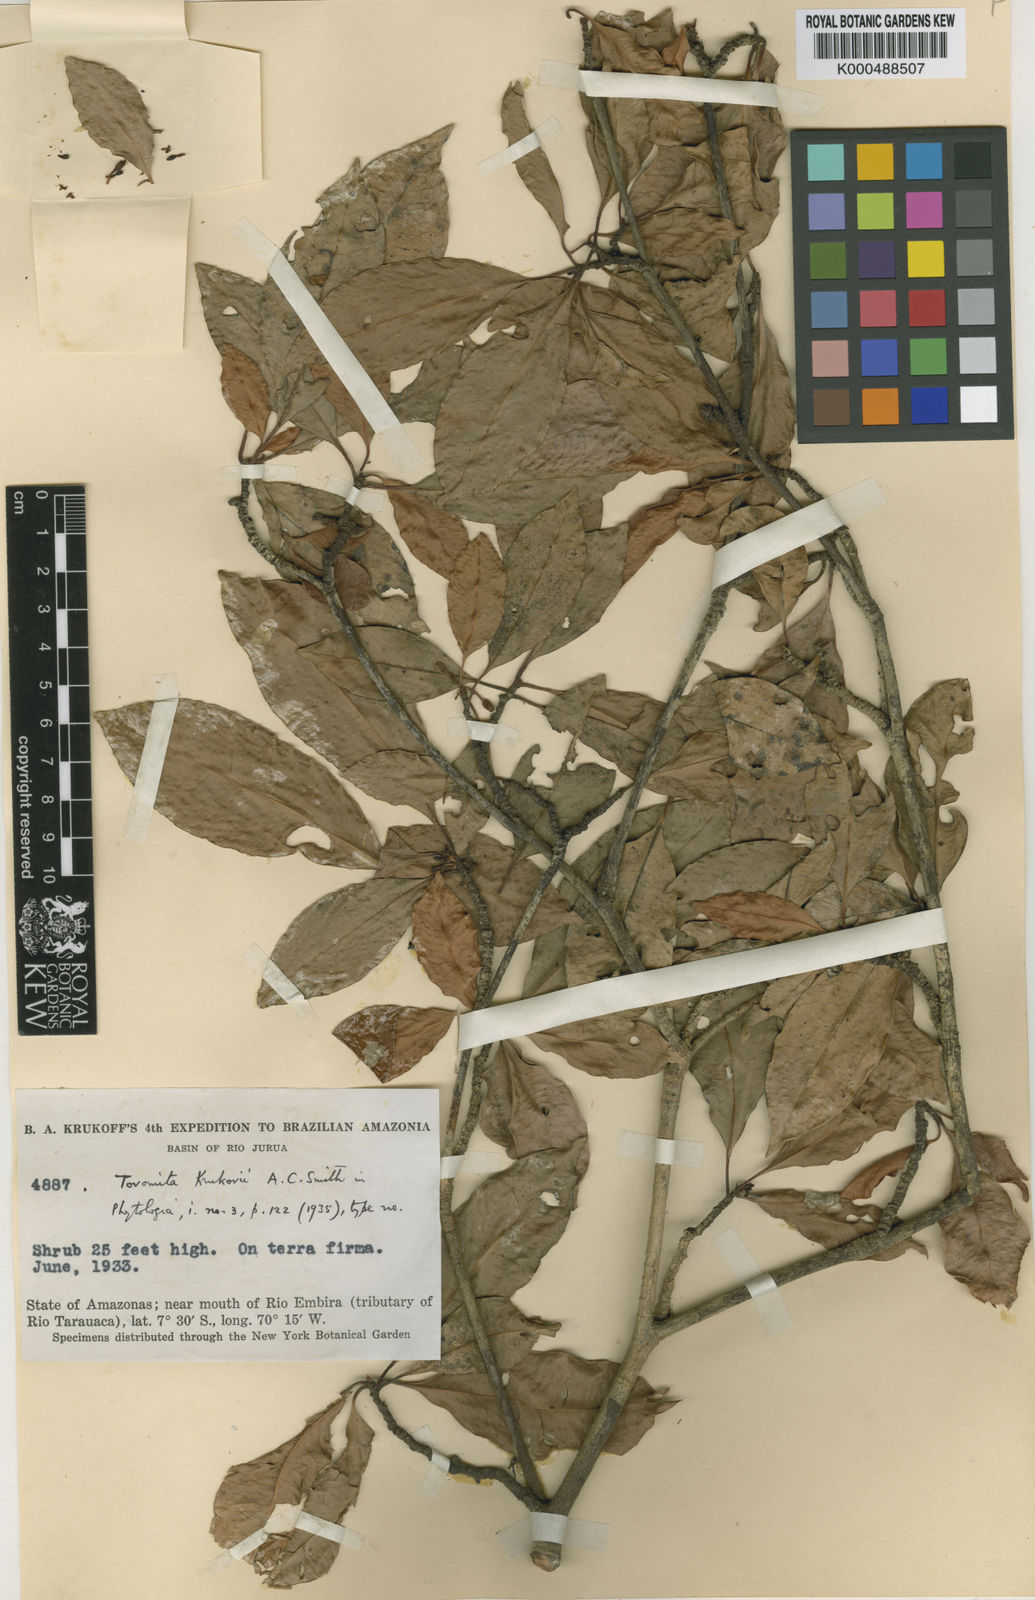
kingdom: Plantae
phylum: Tracheophyta
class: Magnoliopsida
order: Malpighiales
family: Clusiaceae
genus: Tovomita
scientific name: Tovomita krukovii
